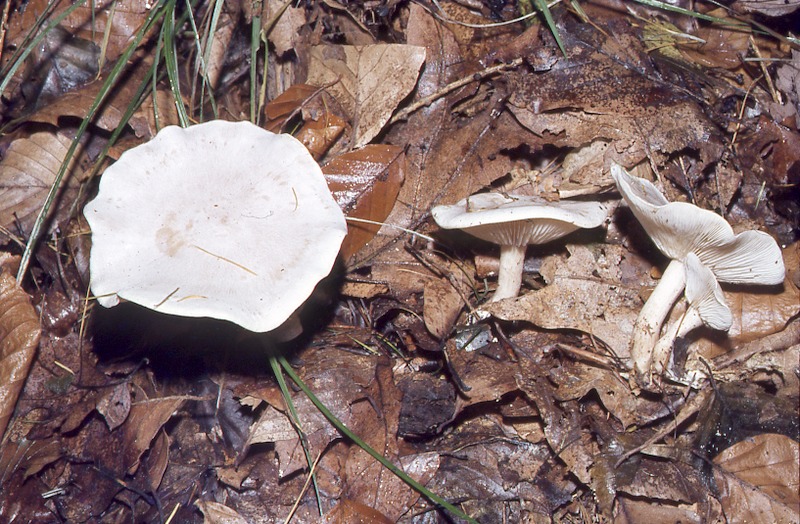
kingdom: Fungi
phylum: Basidiomycota
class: Agaricomycetes
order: Agaricales
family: Tricholomataceae
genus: Clitocybe
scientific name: Clitocybe phyllophila
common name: Frosty funnel
